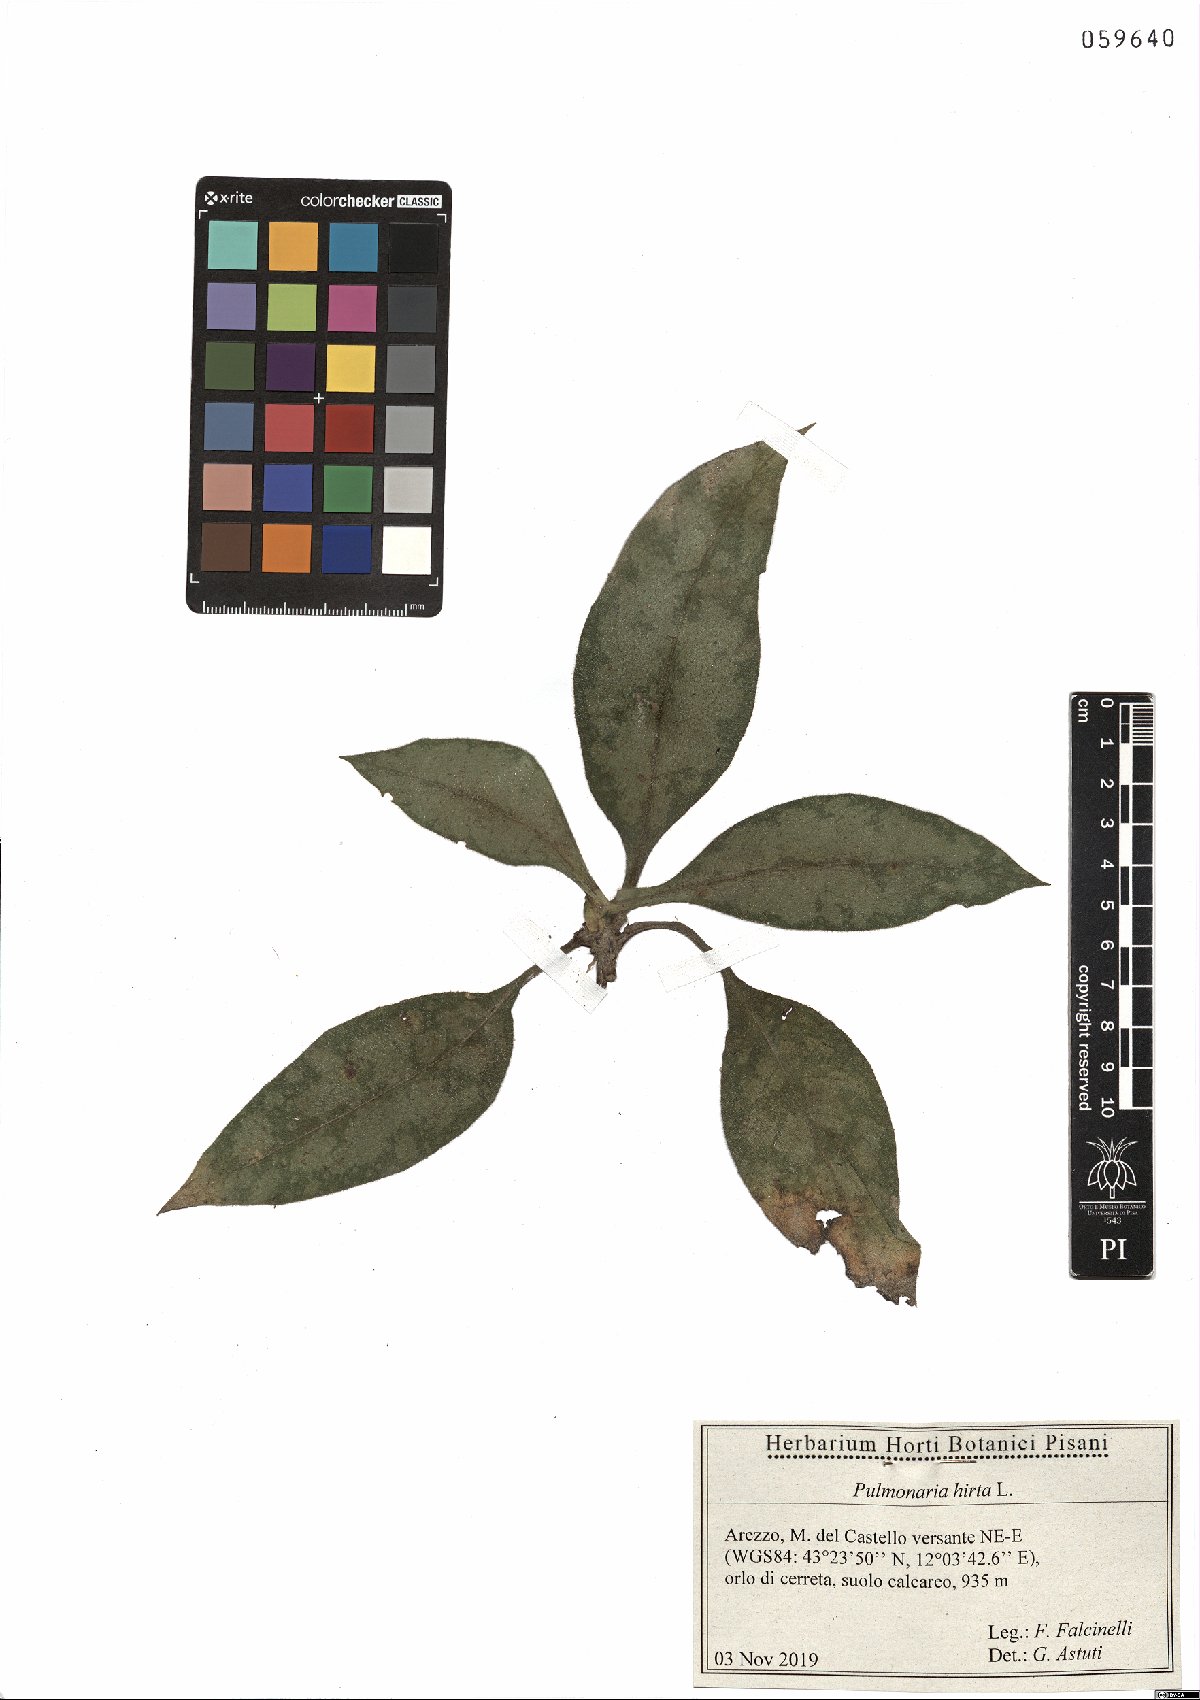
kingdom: Plantae
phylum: Tracheophyta
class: Magnoliopsida
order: Boraginales
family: Boraginaceae
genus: Pulmonaria
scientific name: Pulmonaria hirta
